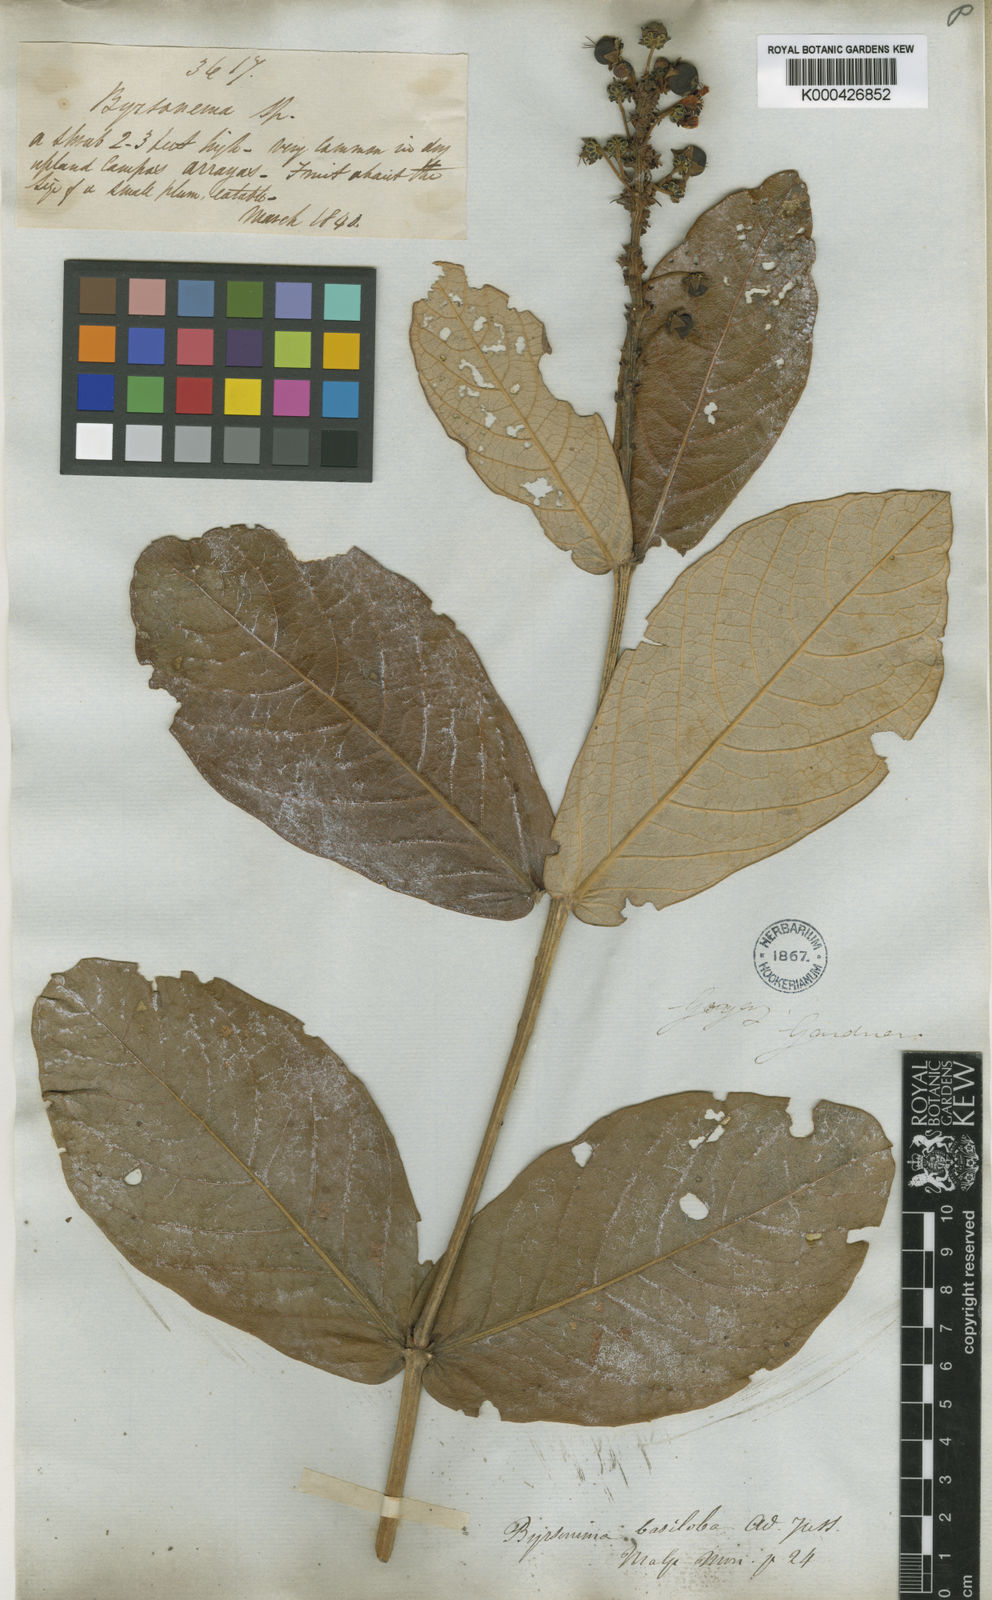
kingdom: Plantae
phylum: Tracheophyta
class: Magnoliopsida
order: Malpighiales
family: Malpighiaceae
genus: Byrsonima
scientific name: Byrsonima basiloba
